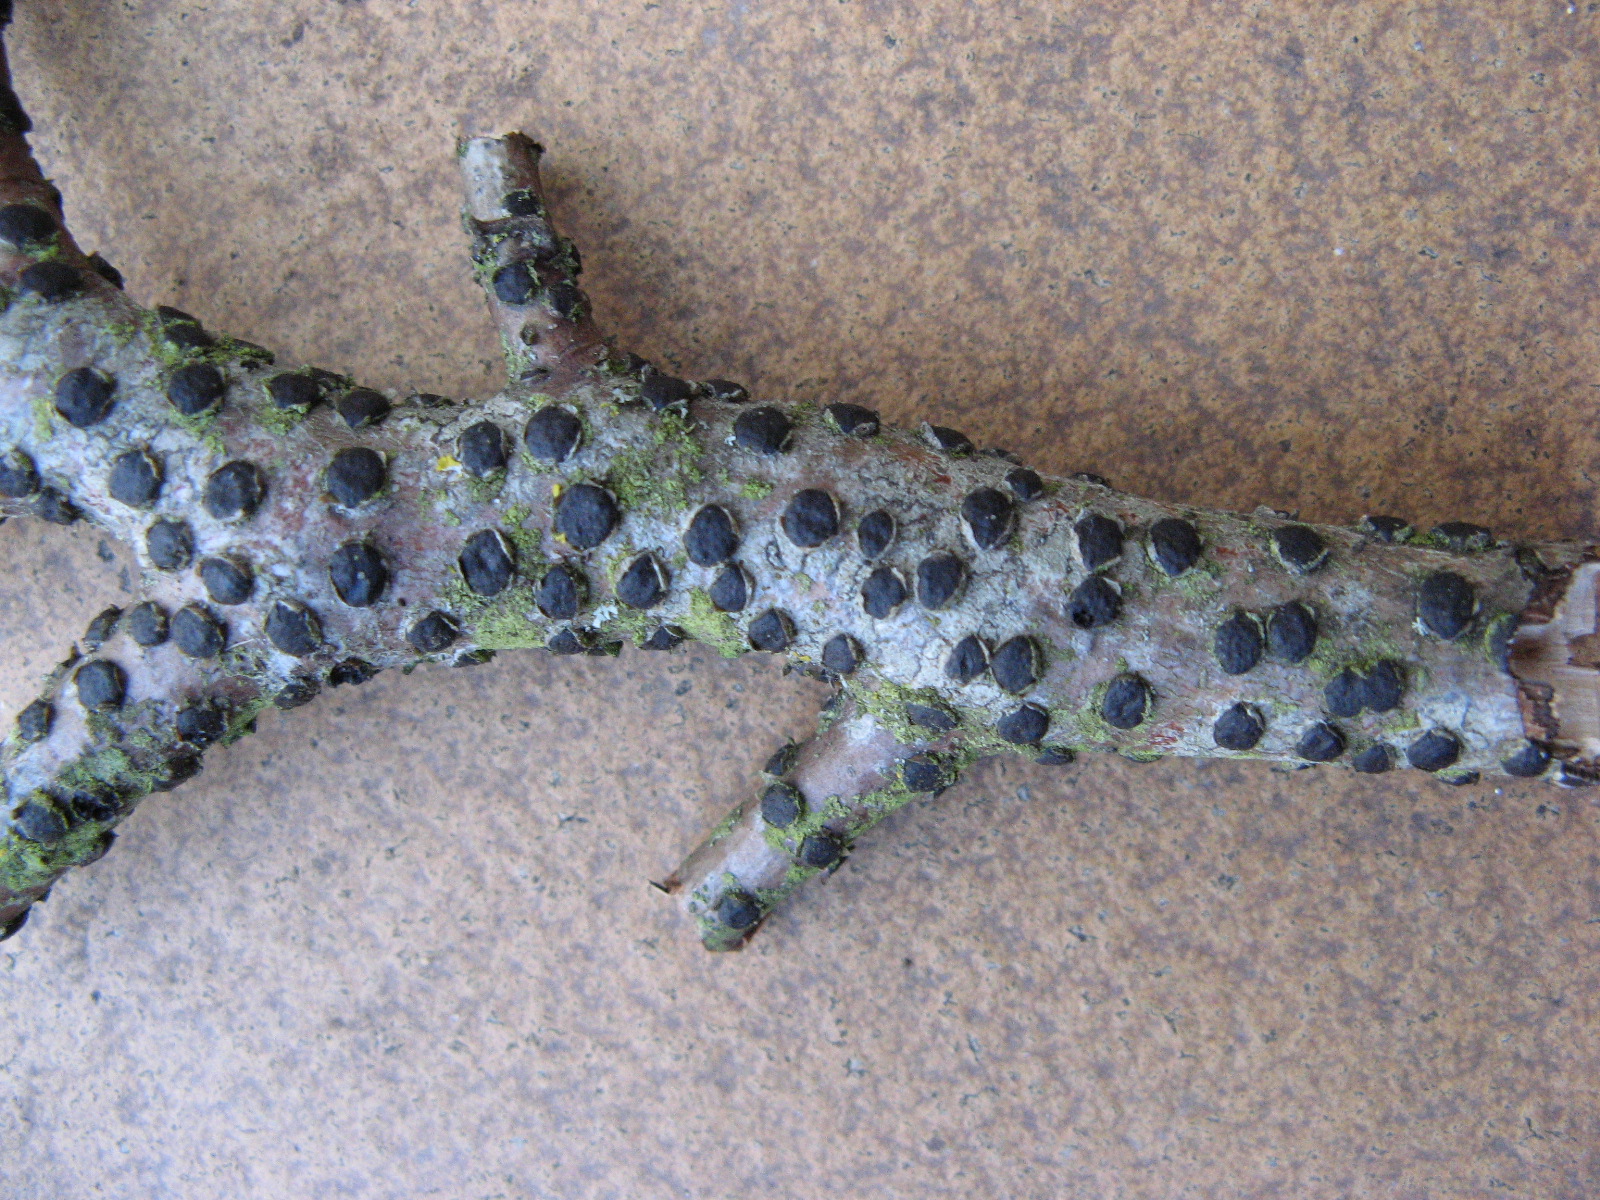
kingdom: Fungi
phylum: Ascomycota
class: Sordariomycetes
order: Xylariales
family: Diatrypaceae
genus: Diatrype
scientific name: Diatrype disciformis
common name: kant-kulskorpe
